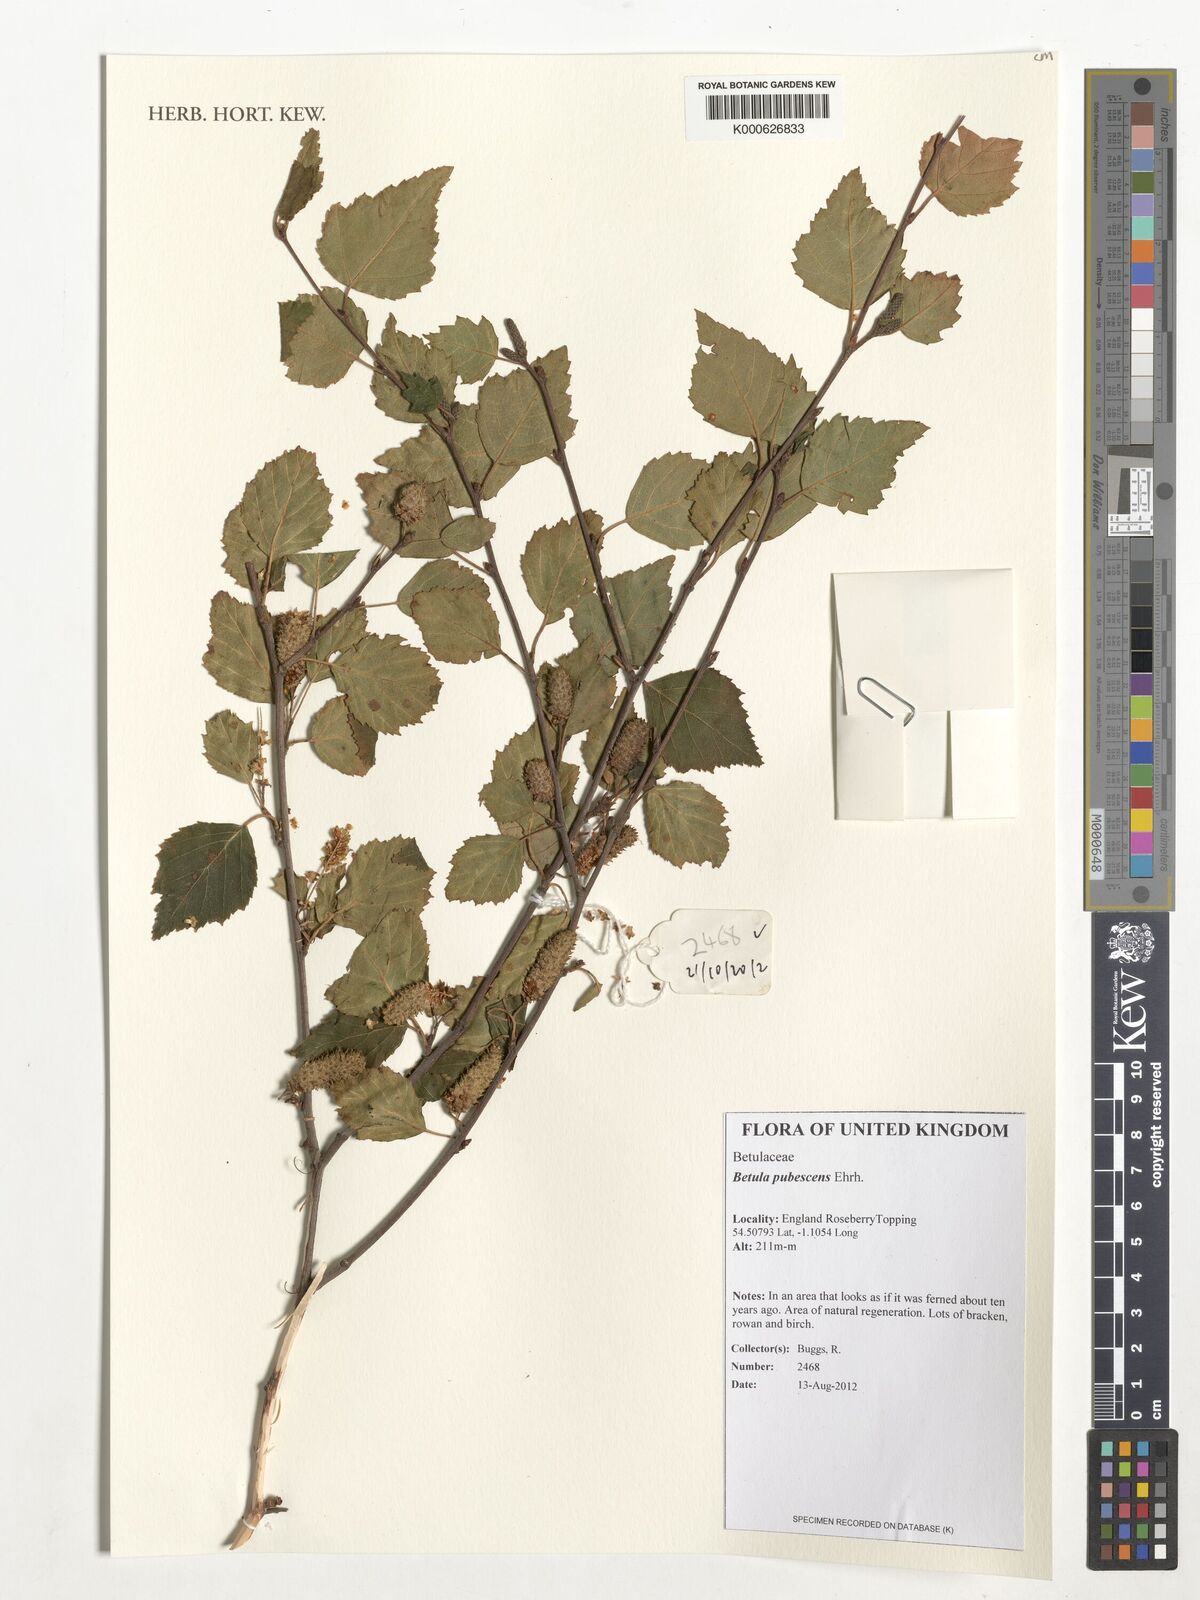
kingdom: Plantae
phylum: Tracheophyta
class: Magnoliopsida
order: Fagales
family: Betulaceae
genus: Betula
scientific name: Betula pubescens
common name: Downy birch
